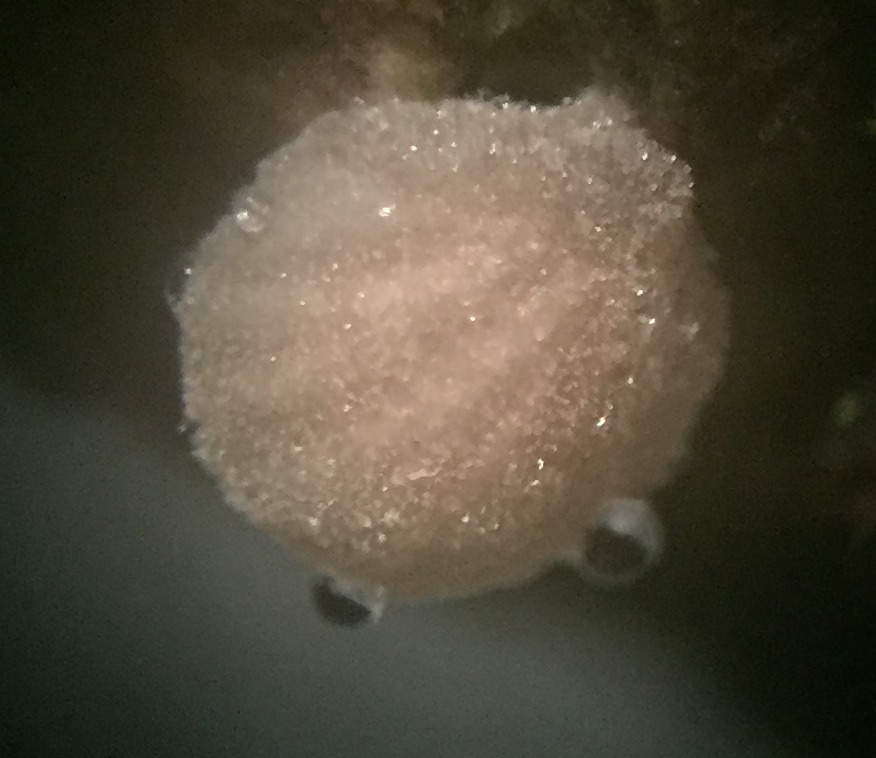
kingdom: Fungi
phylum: Basidiomycota
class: Agaricomycetes
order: Agaricales
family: Crepidotaceae
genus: Simocybe
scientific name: Simocybe haustellaris
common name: skæv skyggehat
